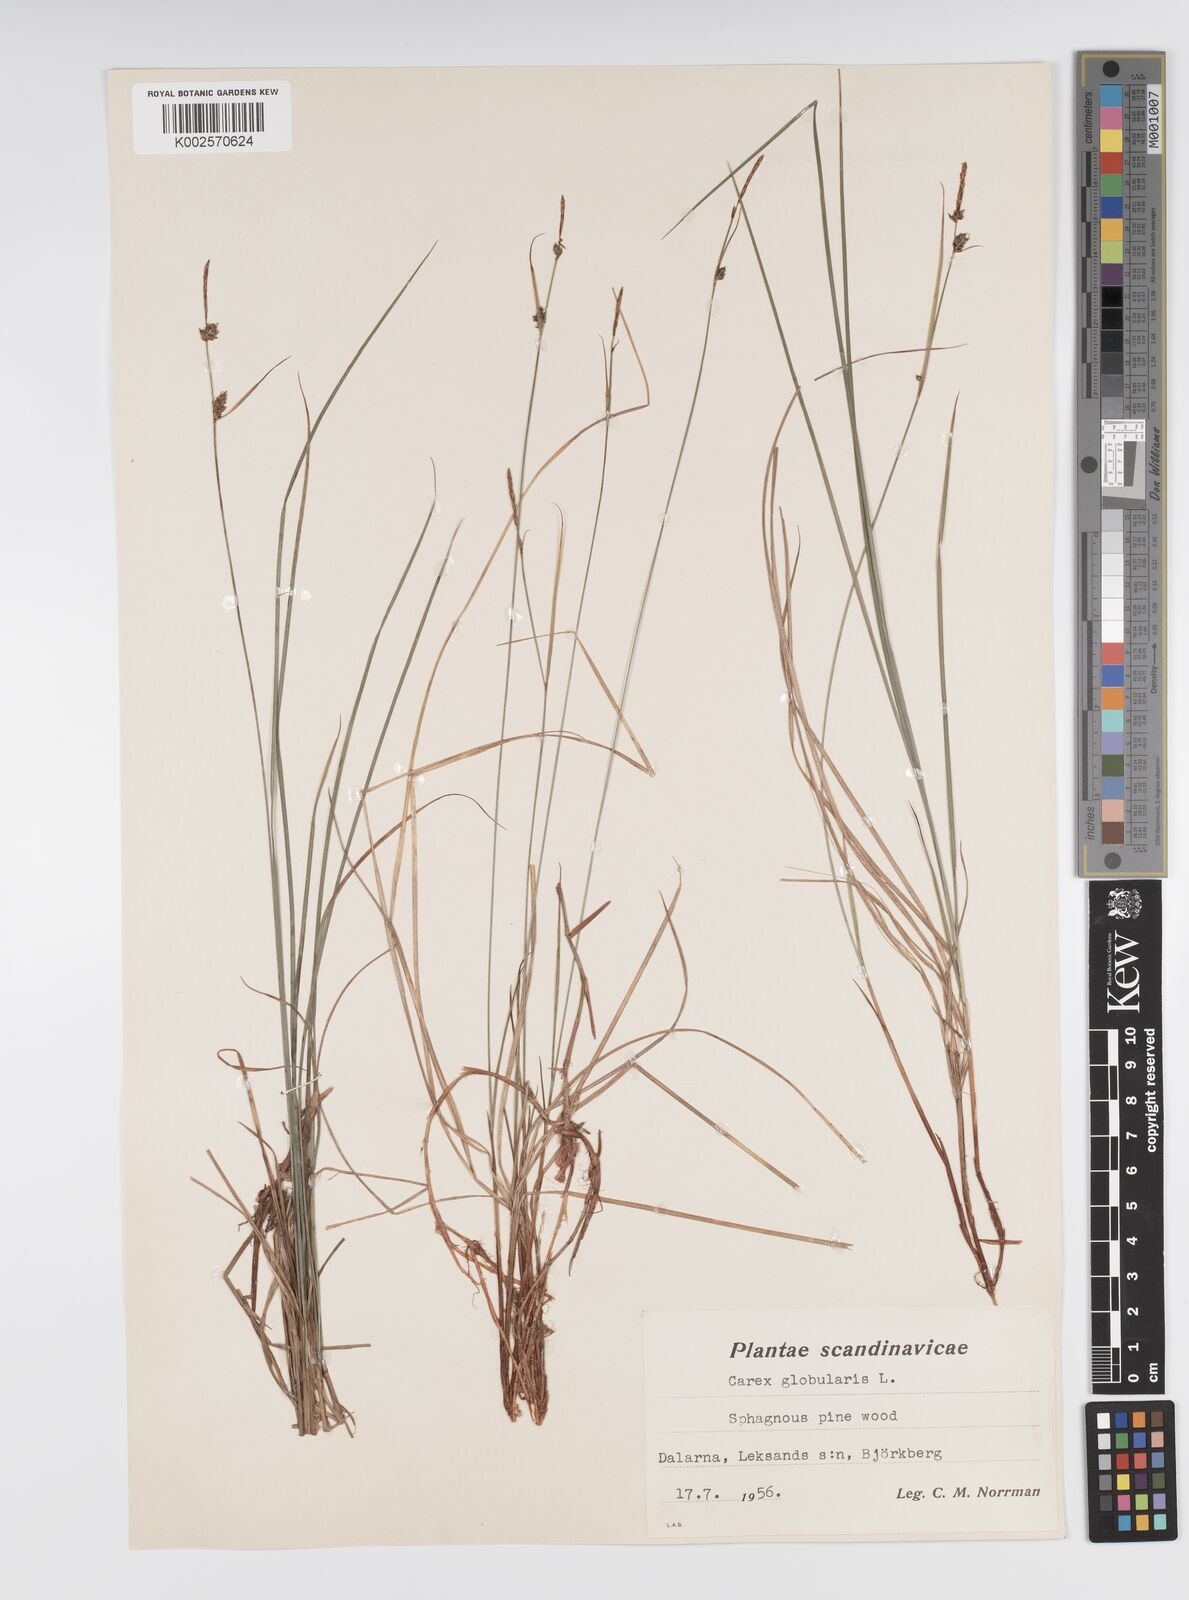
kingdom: Plantae
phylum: Tracheophyta
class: Liliopsida
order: Poales
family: Cyperaceae
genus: Carex
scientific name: Carex globularis
